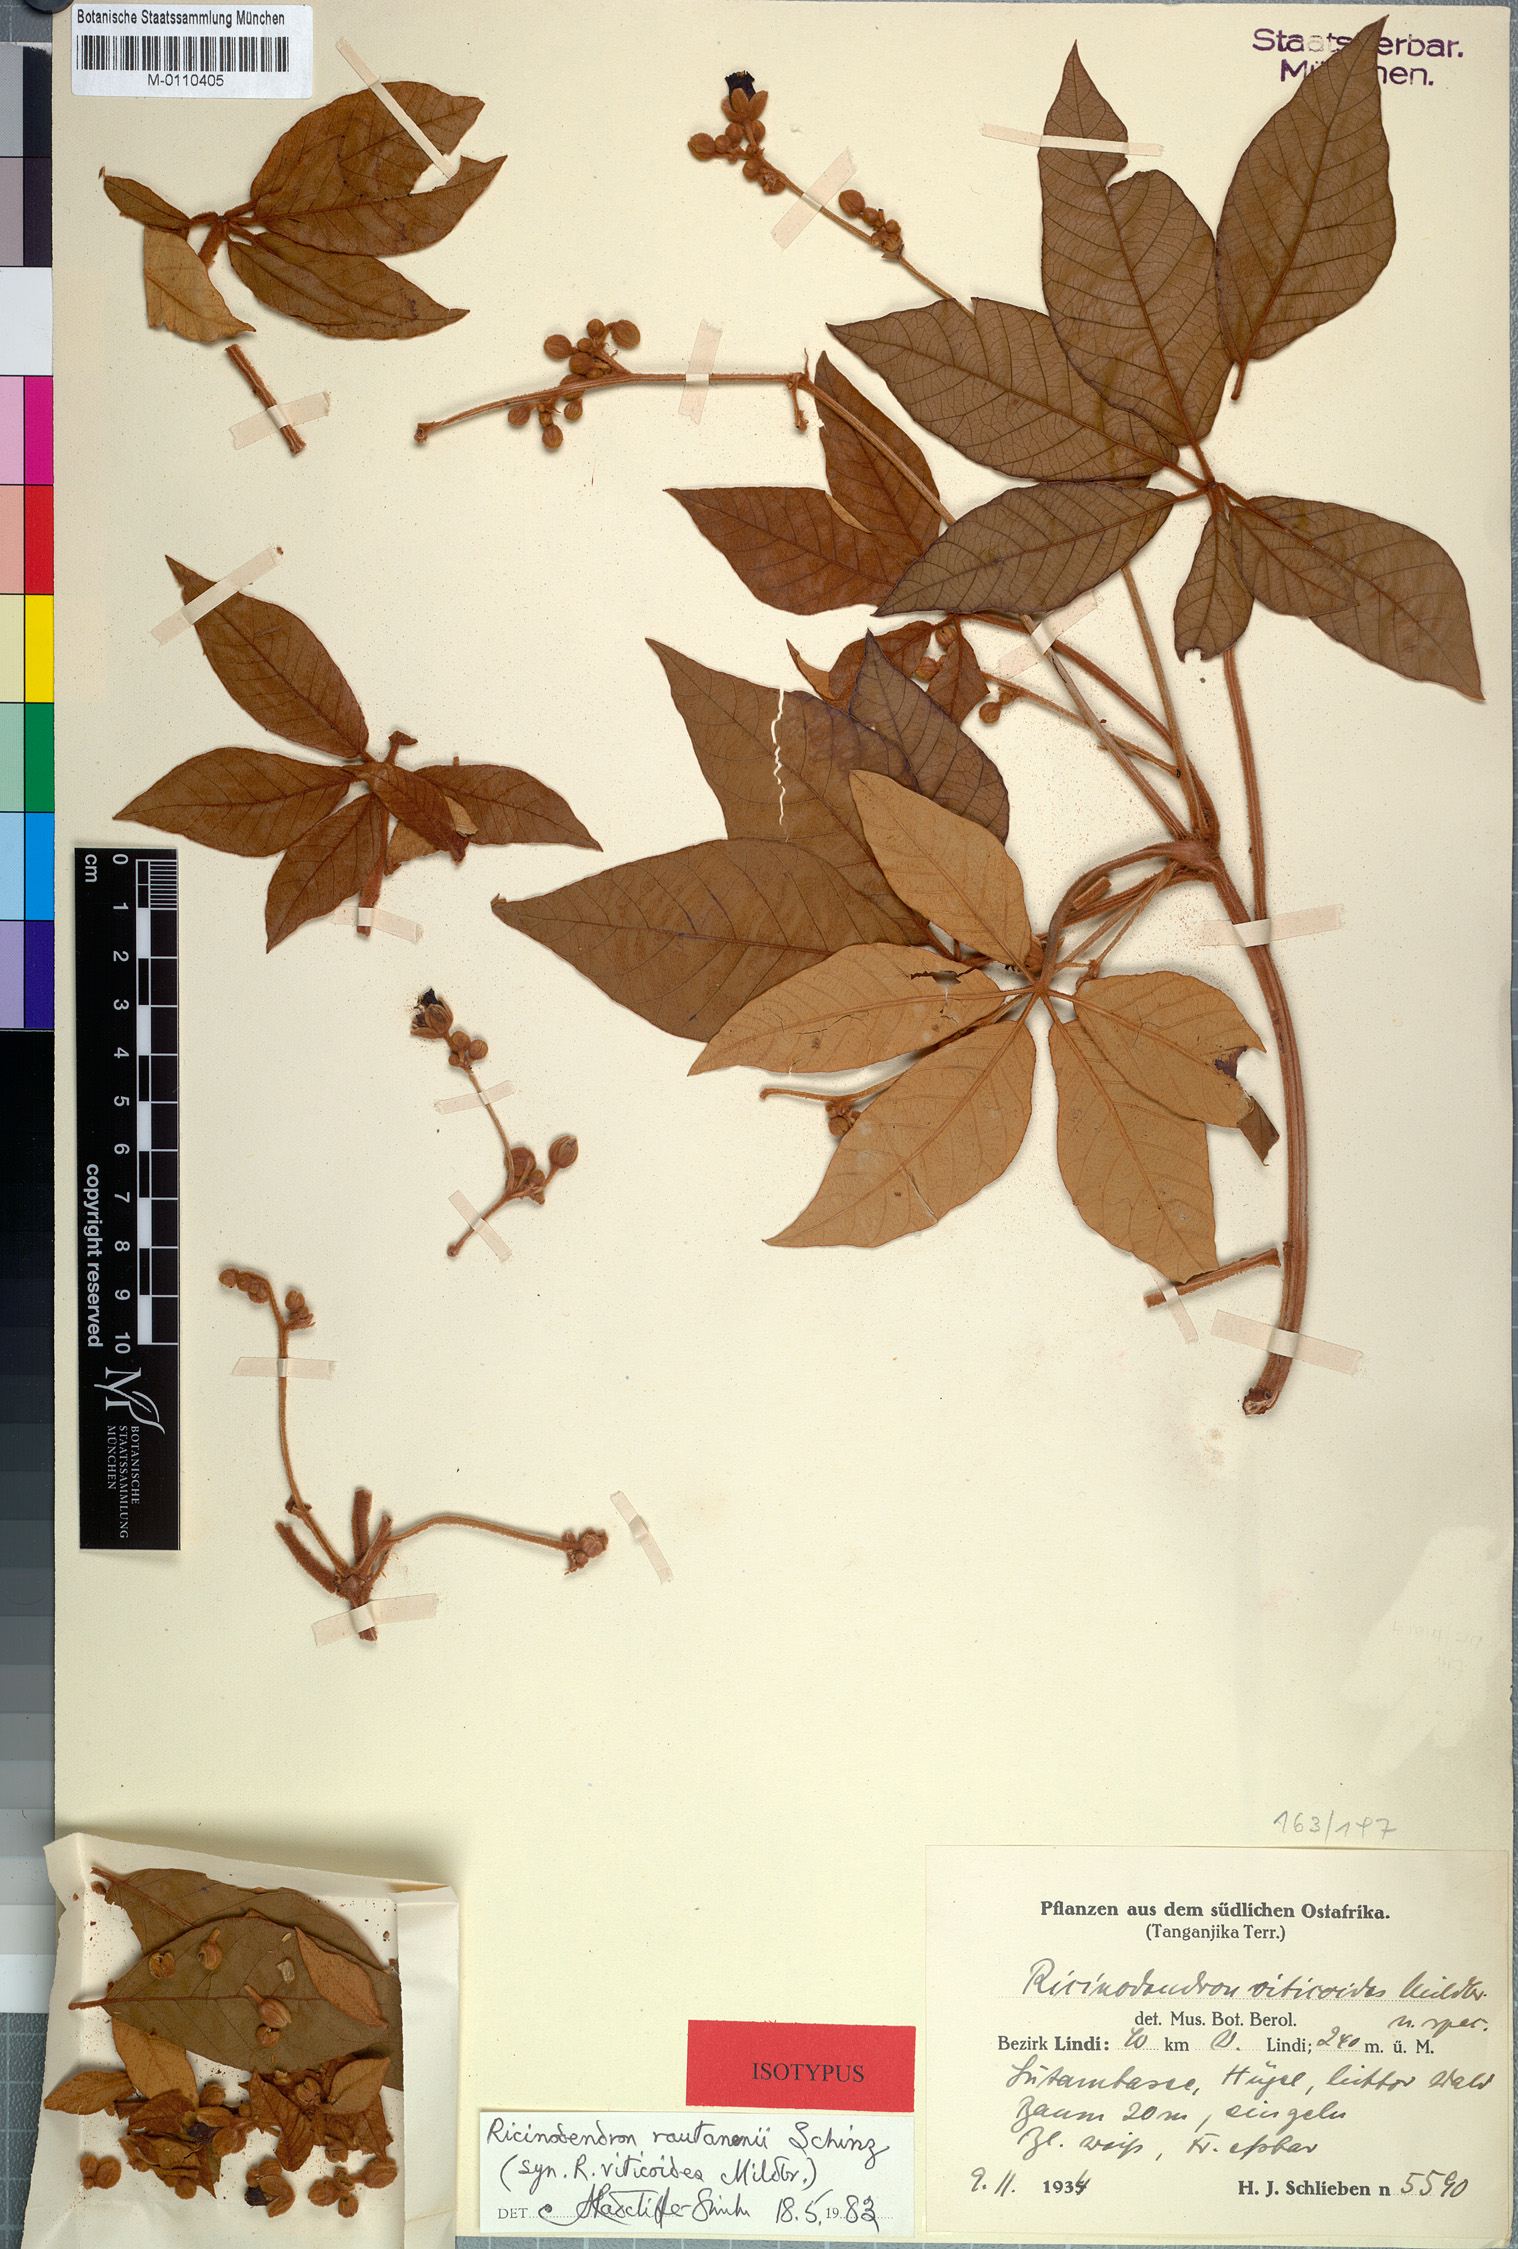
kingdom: Plantae
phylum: Tracheophyta
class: Magnoliopsida
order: Malpighiales
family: Euphorbiaceae
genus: Schinziophyton
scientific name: Schinziophyton rautanenii
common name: Manketti
